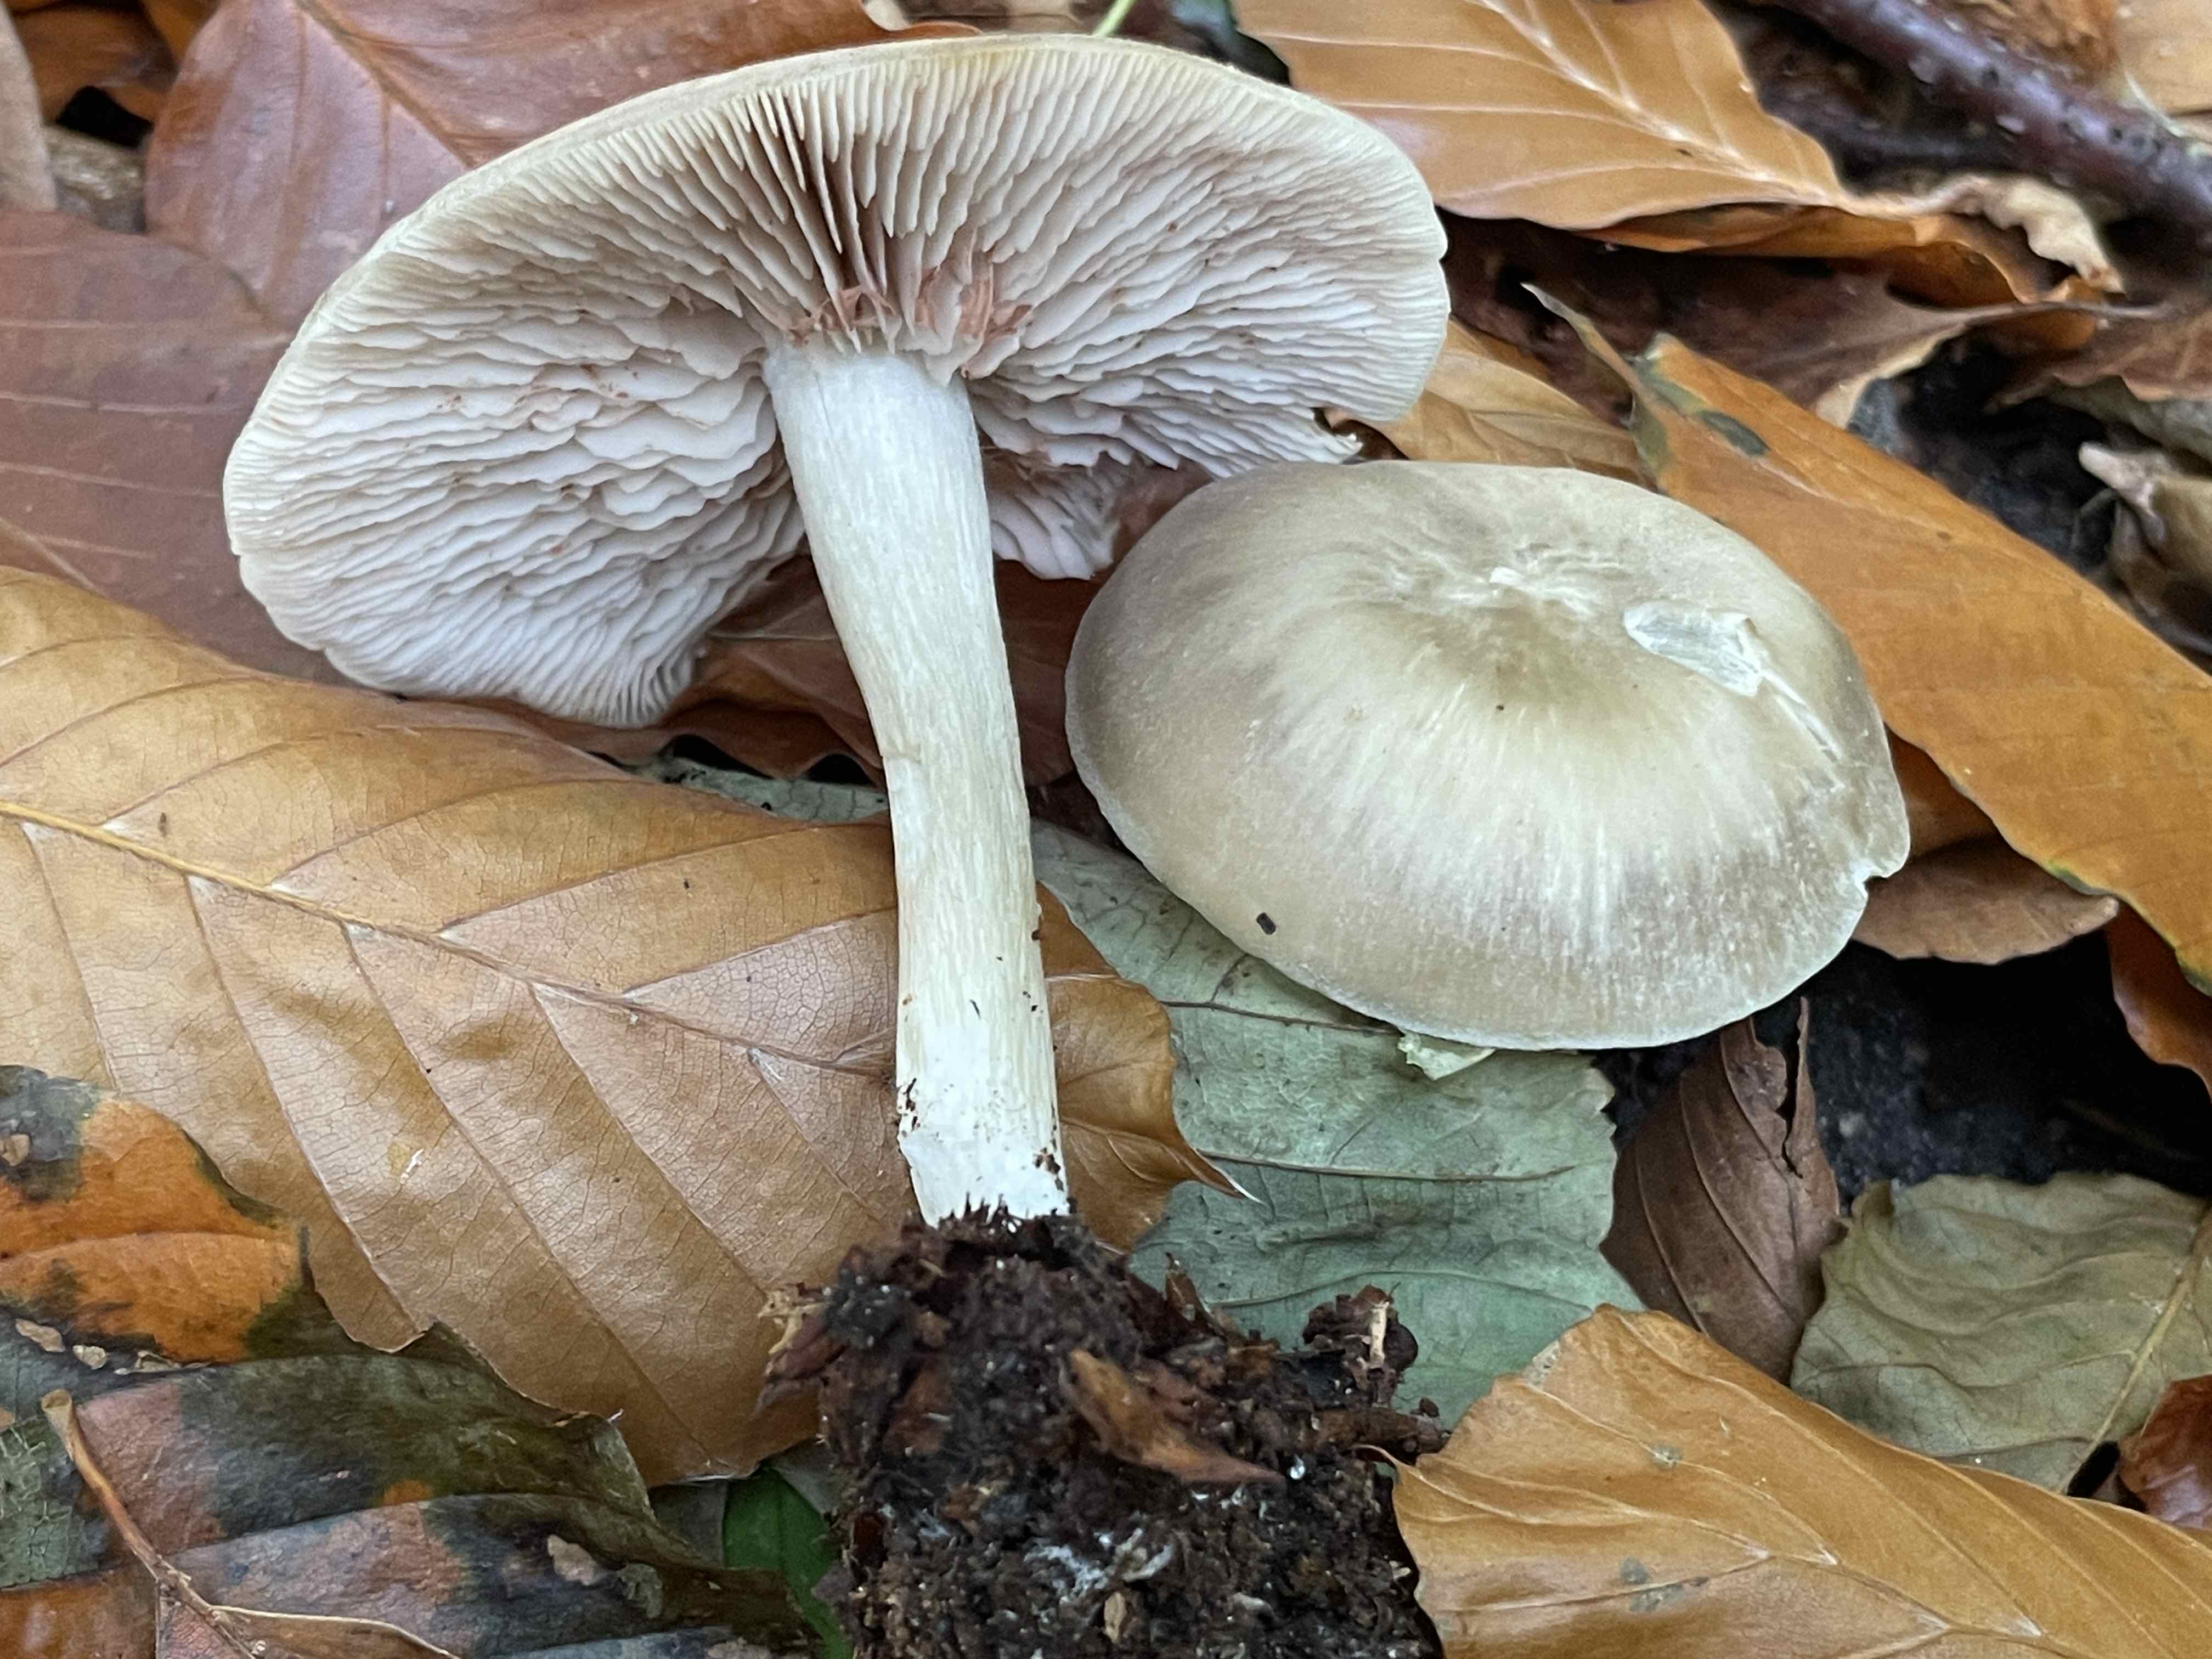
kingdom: Fungi
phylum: Basidiomycota
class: Agaricomycetes
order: Agaricales
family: Entolomataceae
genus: Entoloma
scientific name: Entoloma rhodopolium
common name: skov-rødblad
